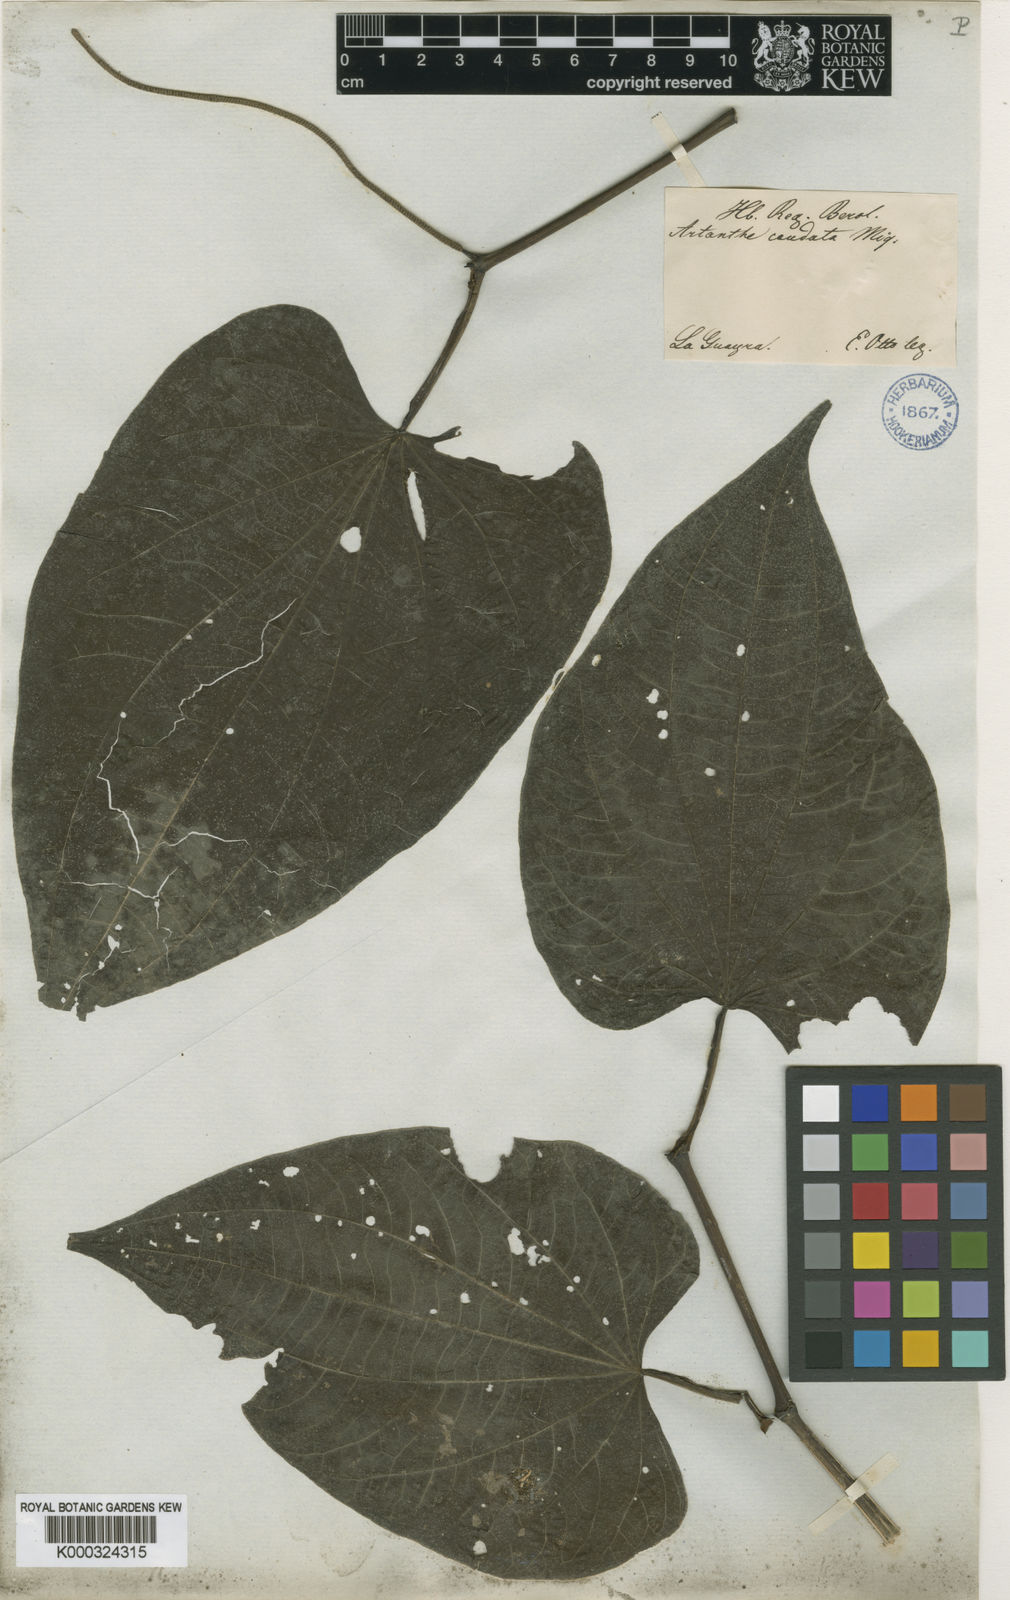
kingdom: Plantae
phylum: Tracheophyta
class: Magnoliopsida
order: Piperales
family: Piperaceae
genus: Piper
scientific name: Piper marginatum
